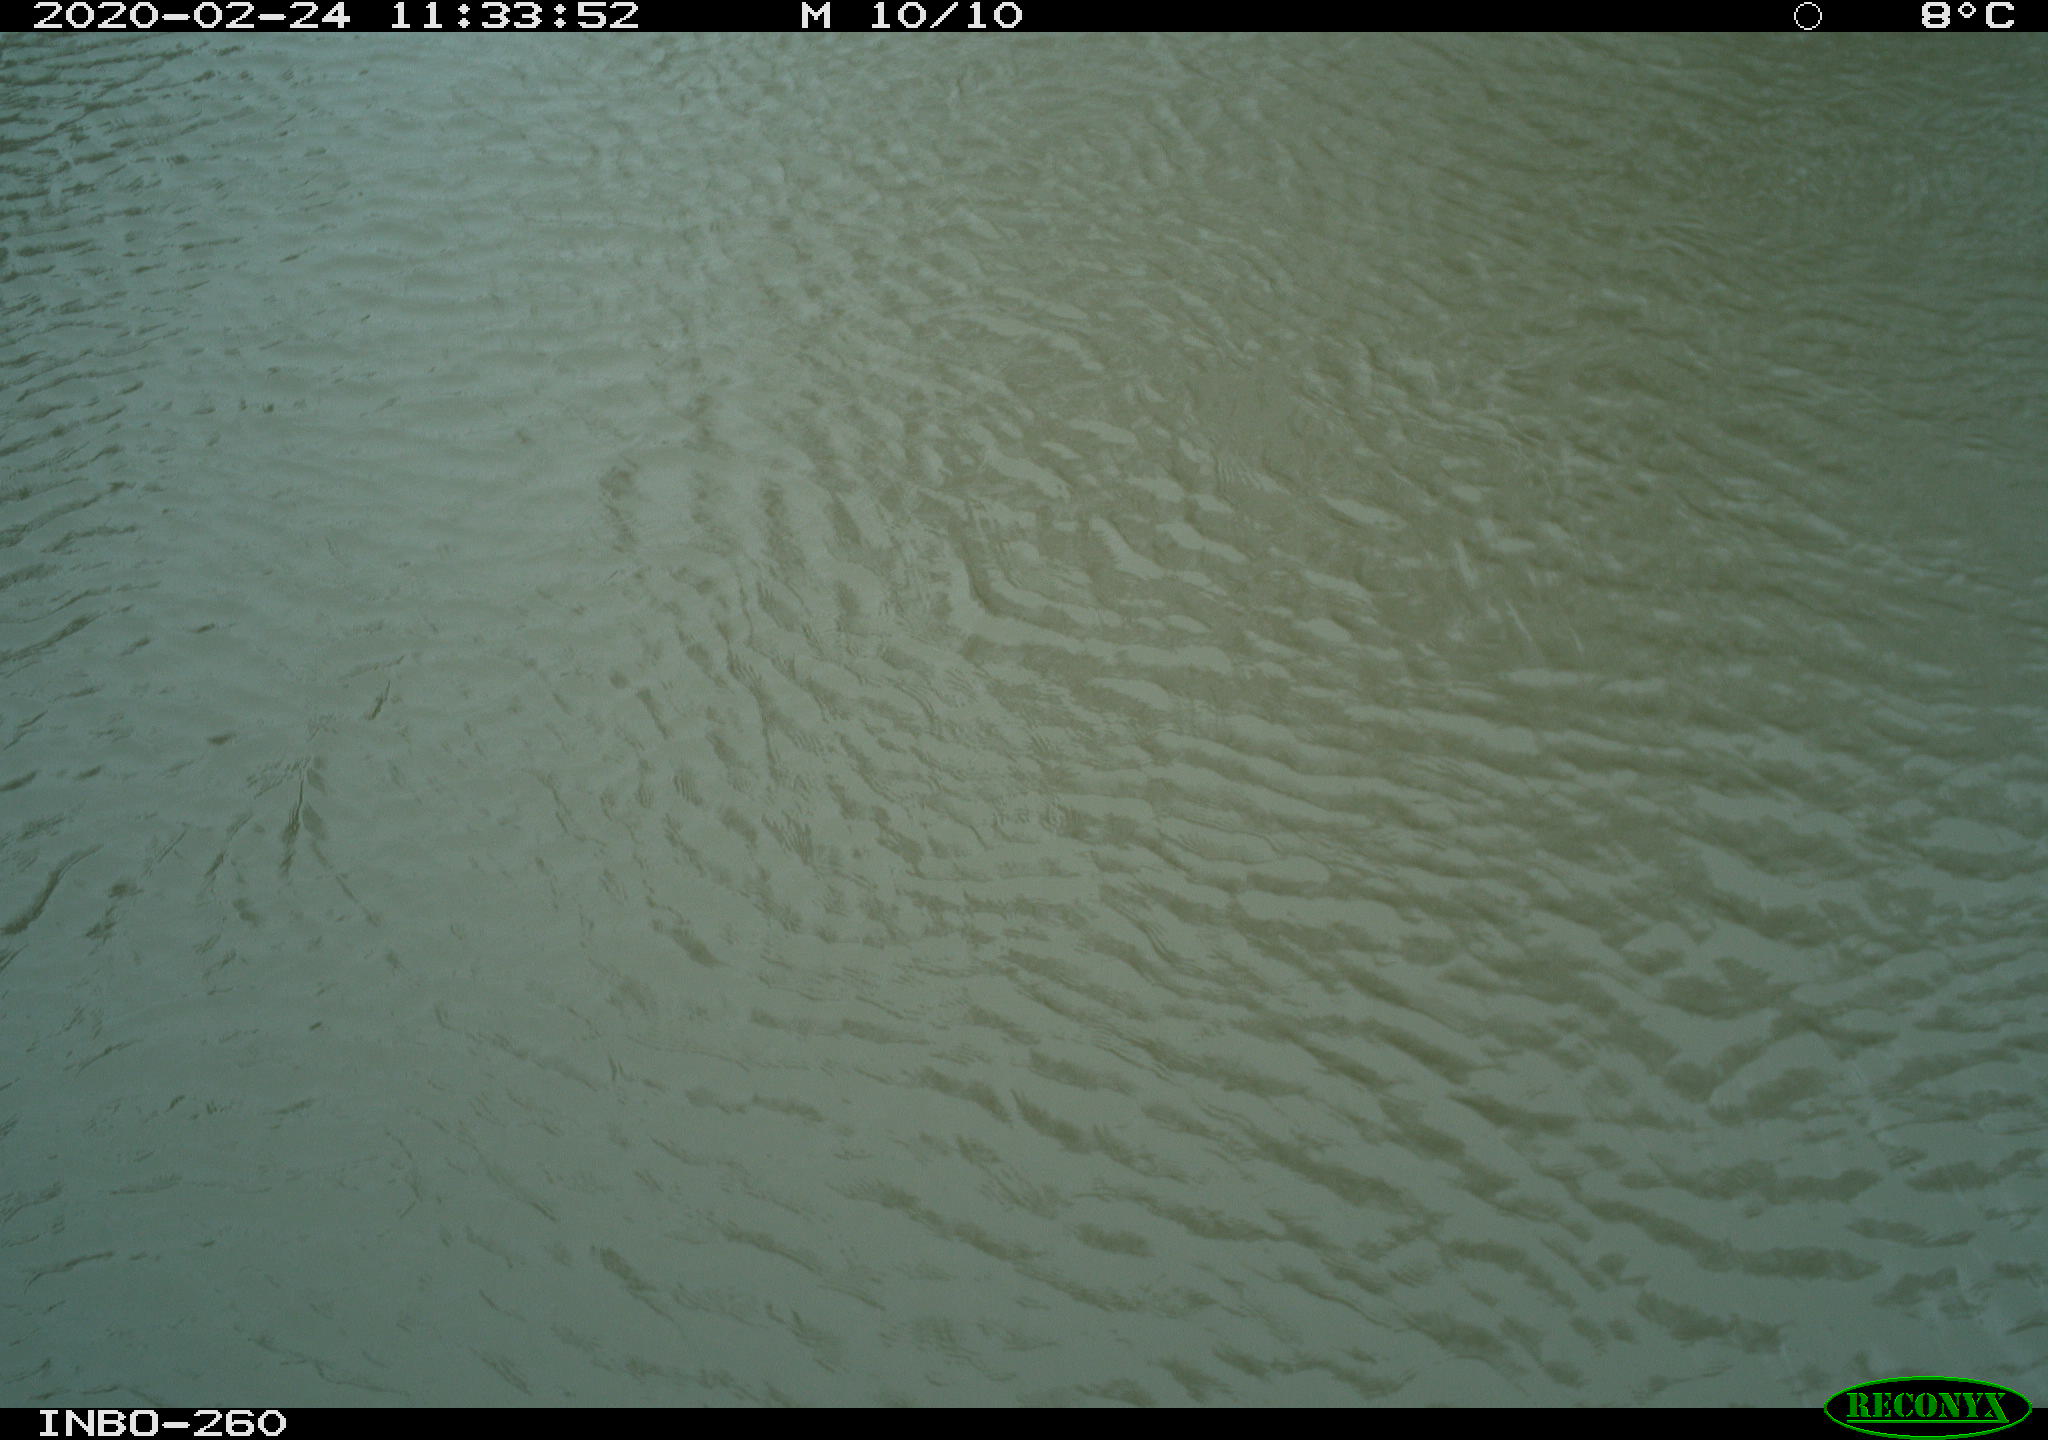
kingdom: Animalia
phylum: Chordata
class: Aves
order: Gruiformes
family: Rallidae
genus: Gallinula
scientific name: Gallinula chloropus
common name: Common moorhen
